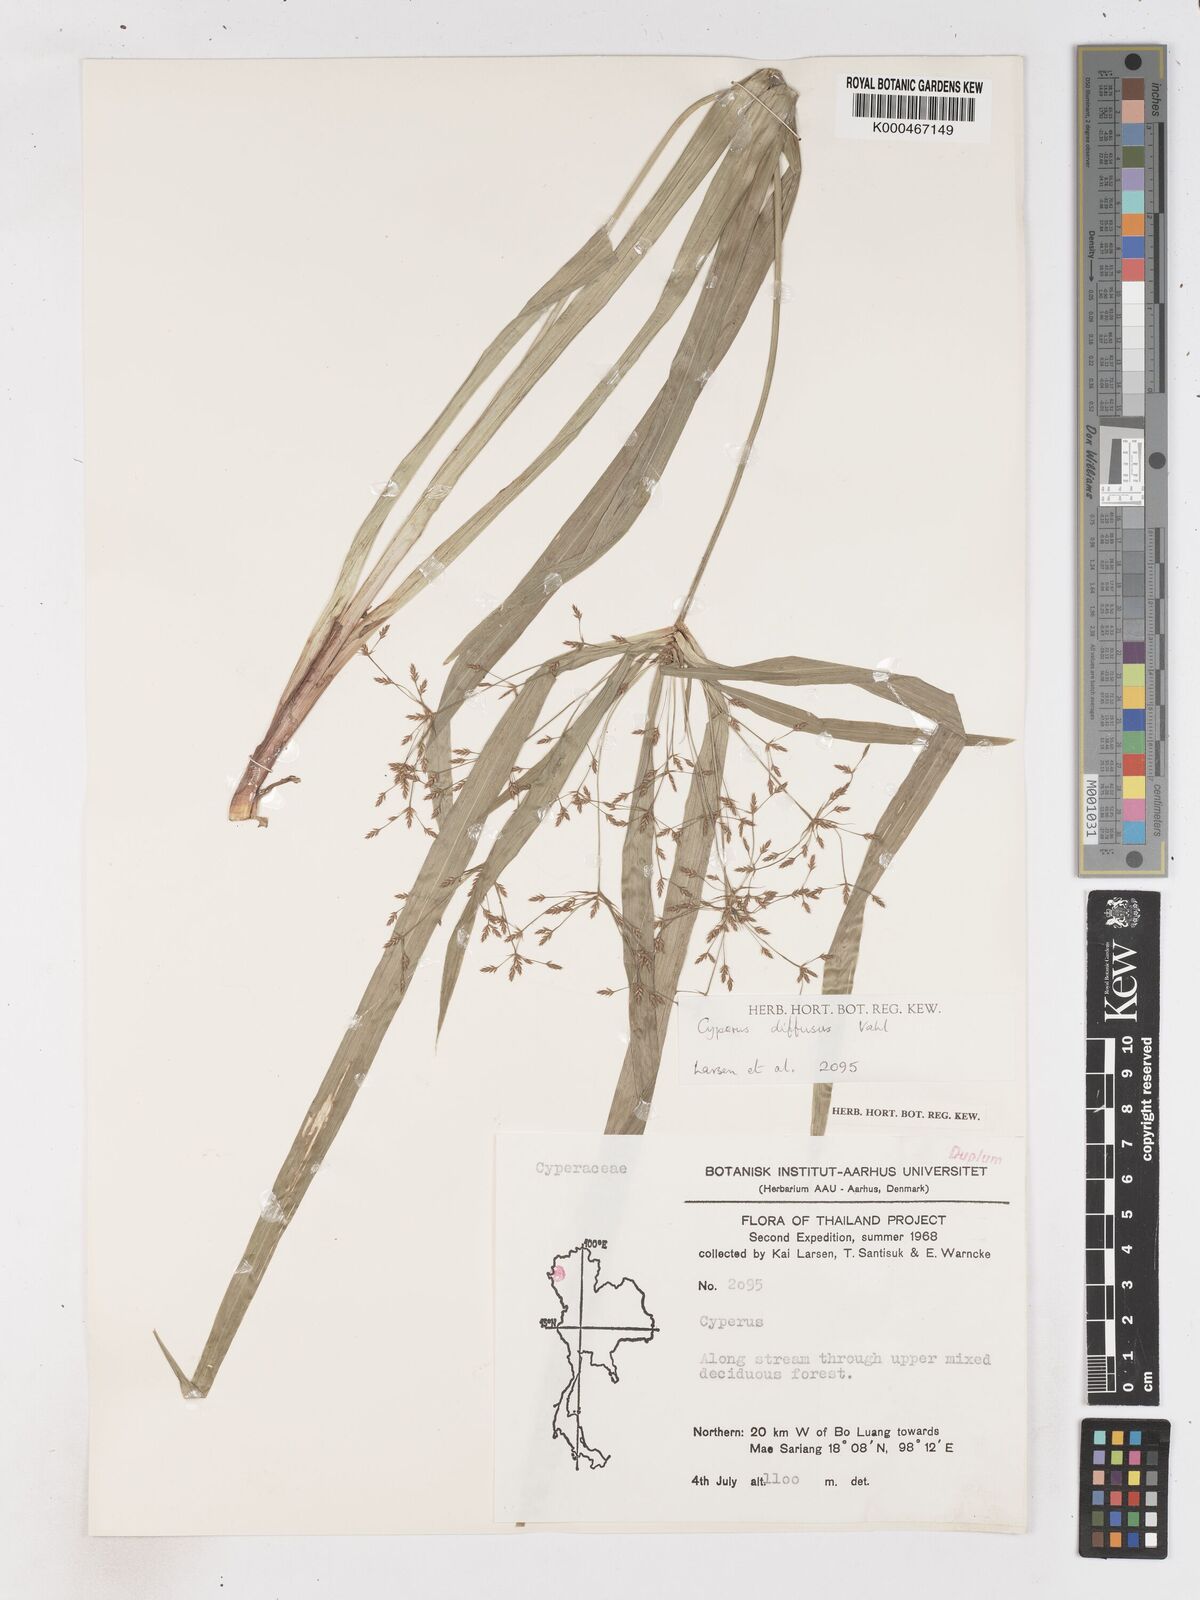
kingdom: Plantae
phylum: Tracheophyta
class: Liliopsida
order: Poales
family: Cyperaceae
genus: Cyperus
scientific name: Cyperus diffusus
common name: Dwarf umbrella grass
